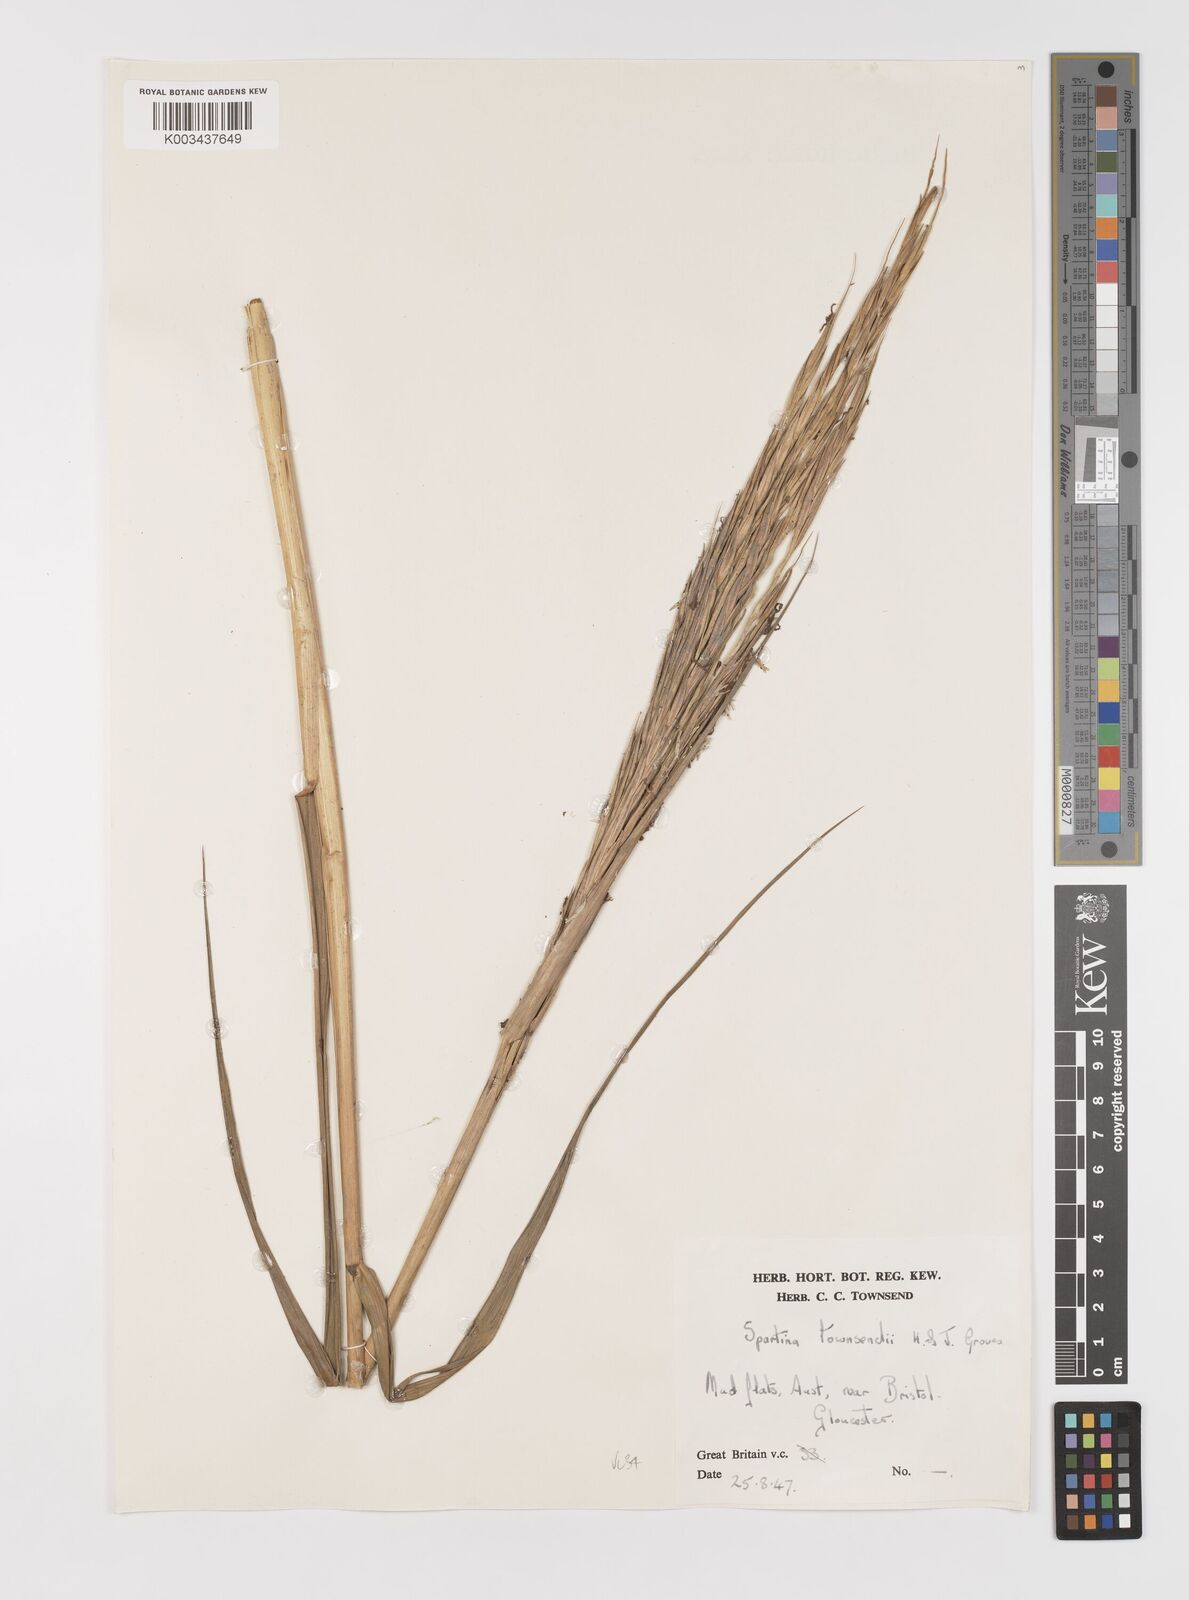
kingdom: Plantae
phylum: Tracheophyta
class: Liliopsida
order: Poales
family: Poaceae
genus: Sporobolus
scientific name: Sporobolus anglicus
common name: English cordgrass
